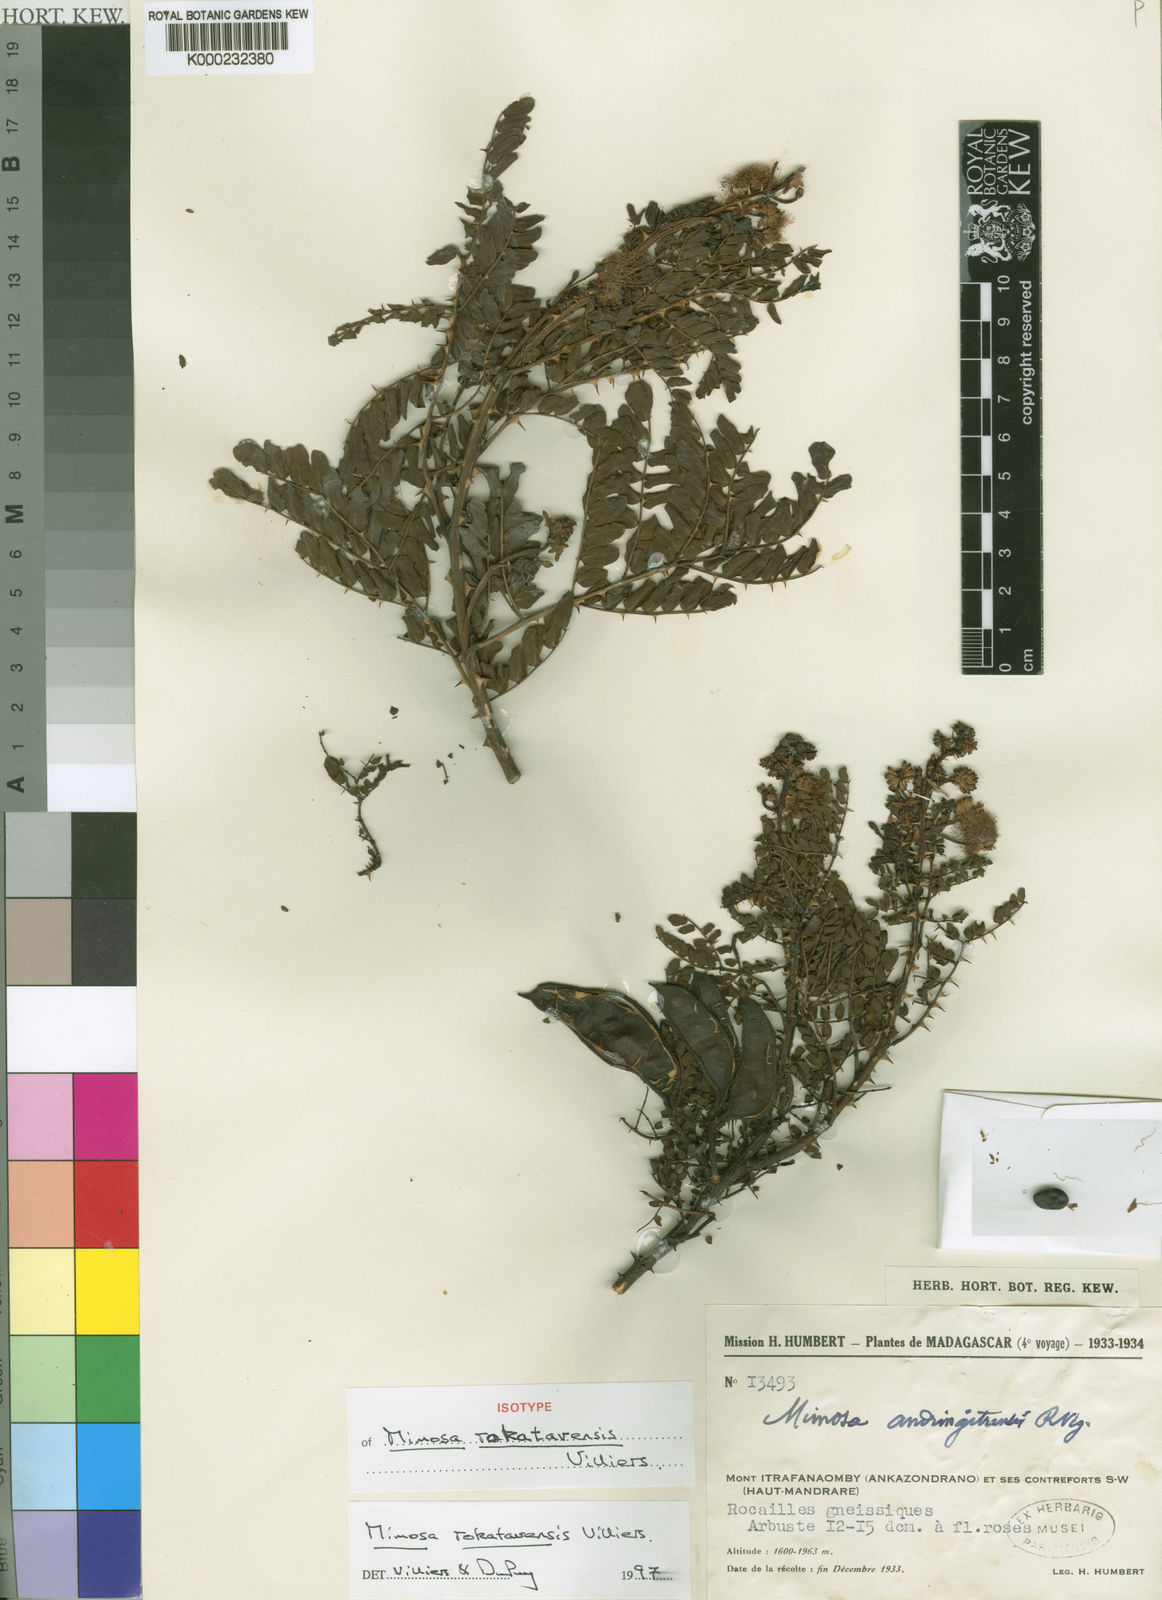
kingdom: Plantae
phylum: Tracheophyta
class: Magnoliopsida
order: Fabales
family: Fabaceae
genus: Mimosa
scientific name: Mimosa
